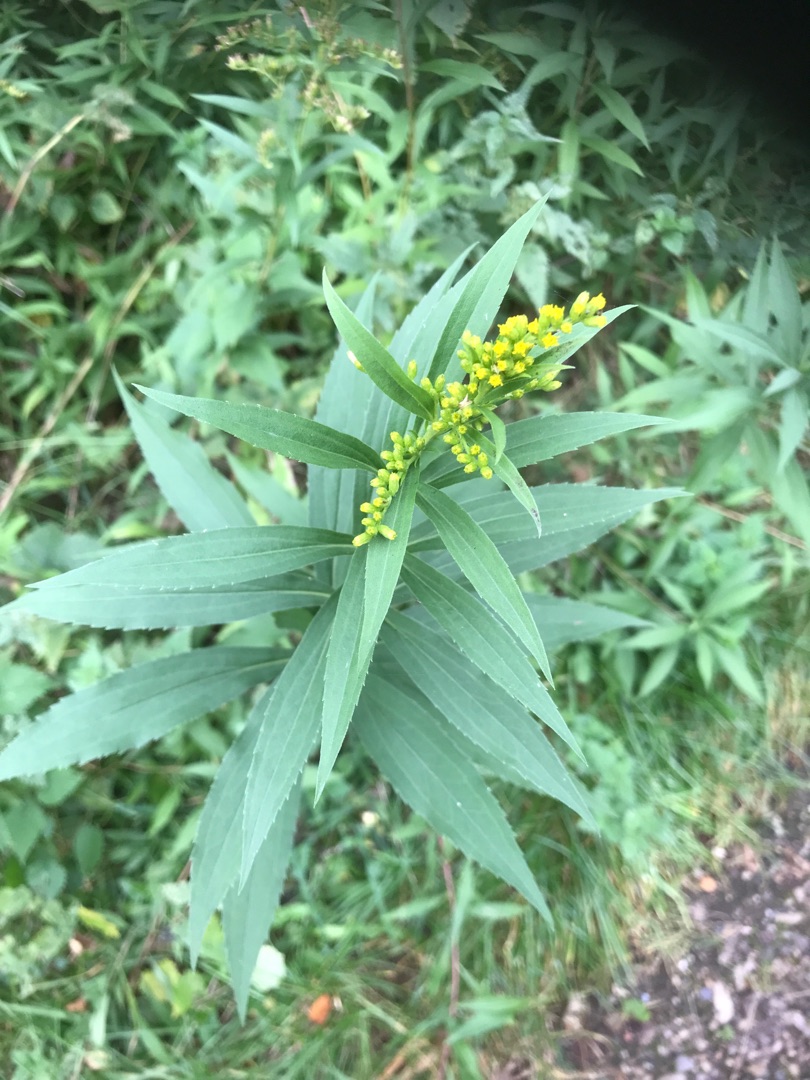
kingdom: Plantae
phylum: Tracheophyta
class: Magnoliopsida
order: Asterales
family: Asteraceae
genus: Solidago
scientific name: Solidago gigantea
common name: Sildig gyldenris
